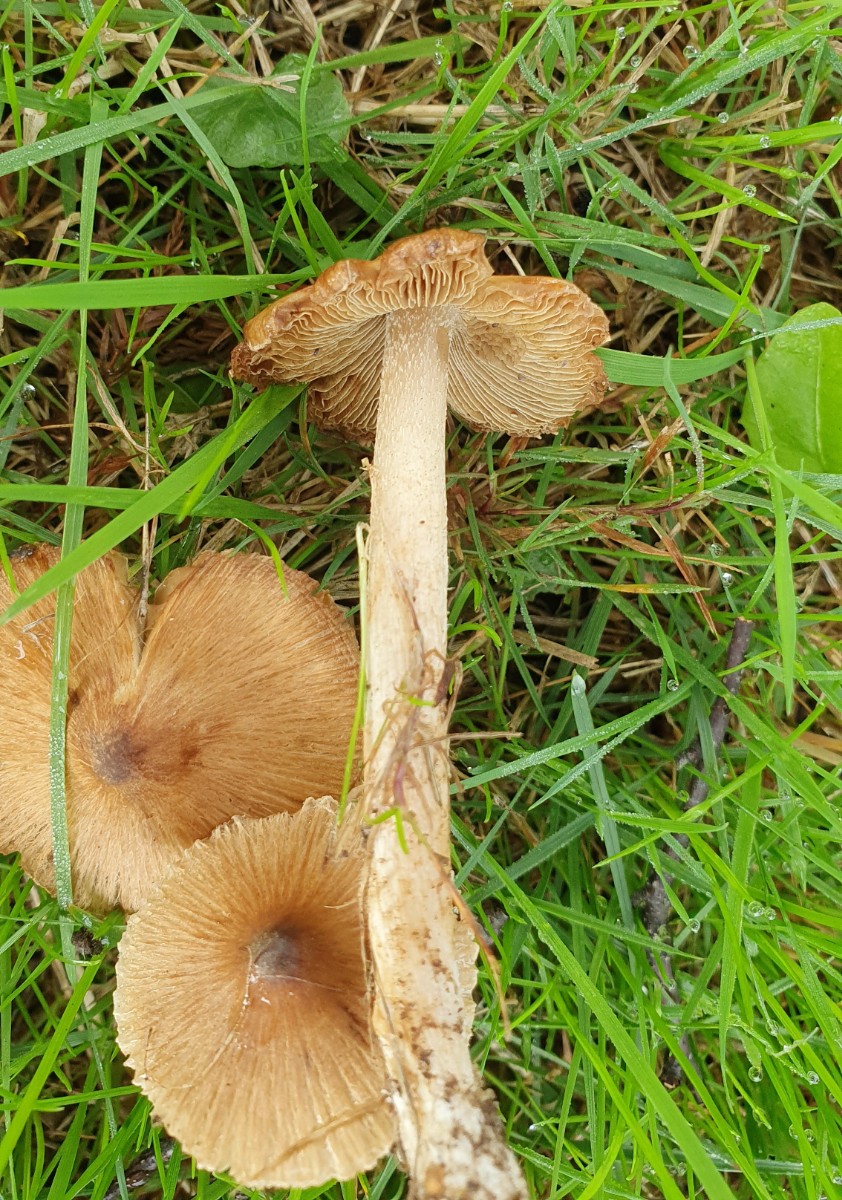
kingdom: Fungi
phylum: Basidiomycota
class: Agaricomycetes
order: Agaricales
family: Inocybaceae
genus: Pseudosperma
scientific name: Pseudosperma
